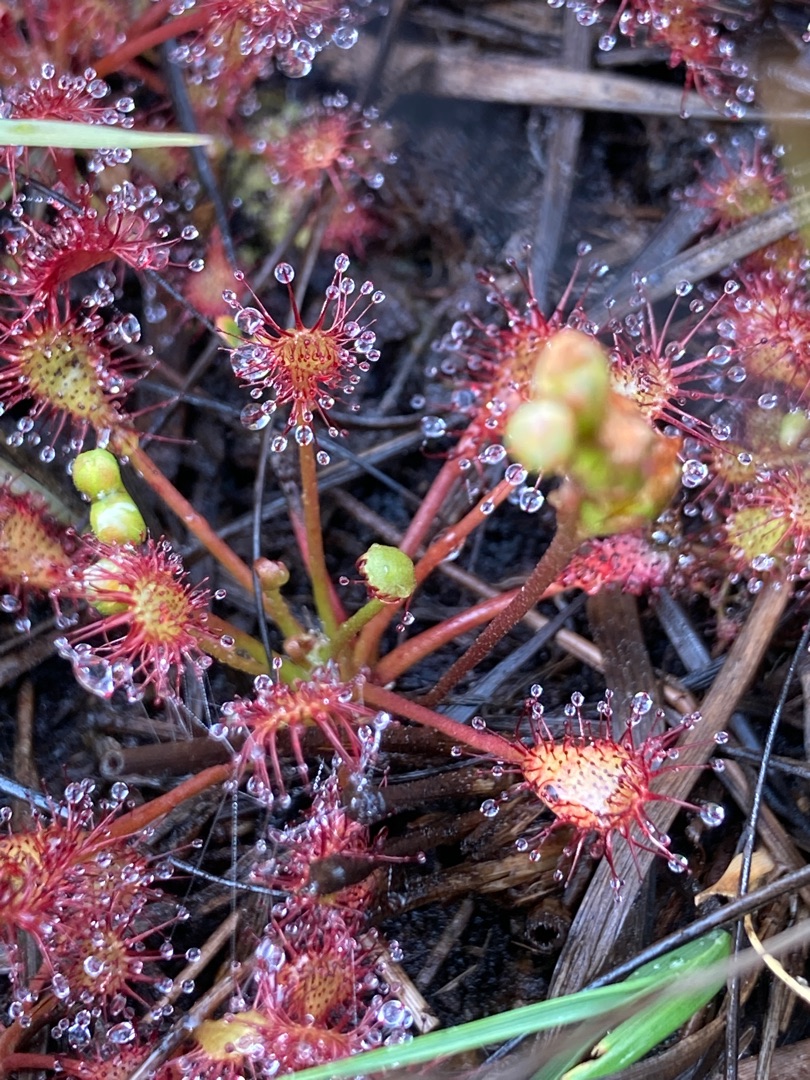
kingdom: Plantae
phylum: Tracheophyta
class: Magnoliopsida
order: Caryophyllales
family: Droseraceae
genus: Drosera
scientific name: Drosera intermedia
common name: Liden soldug
